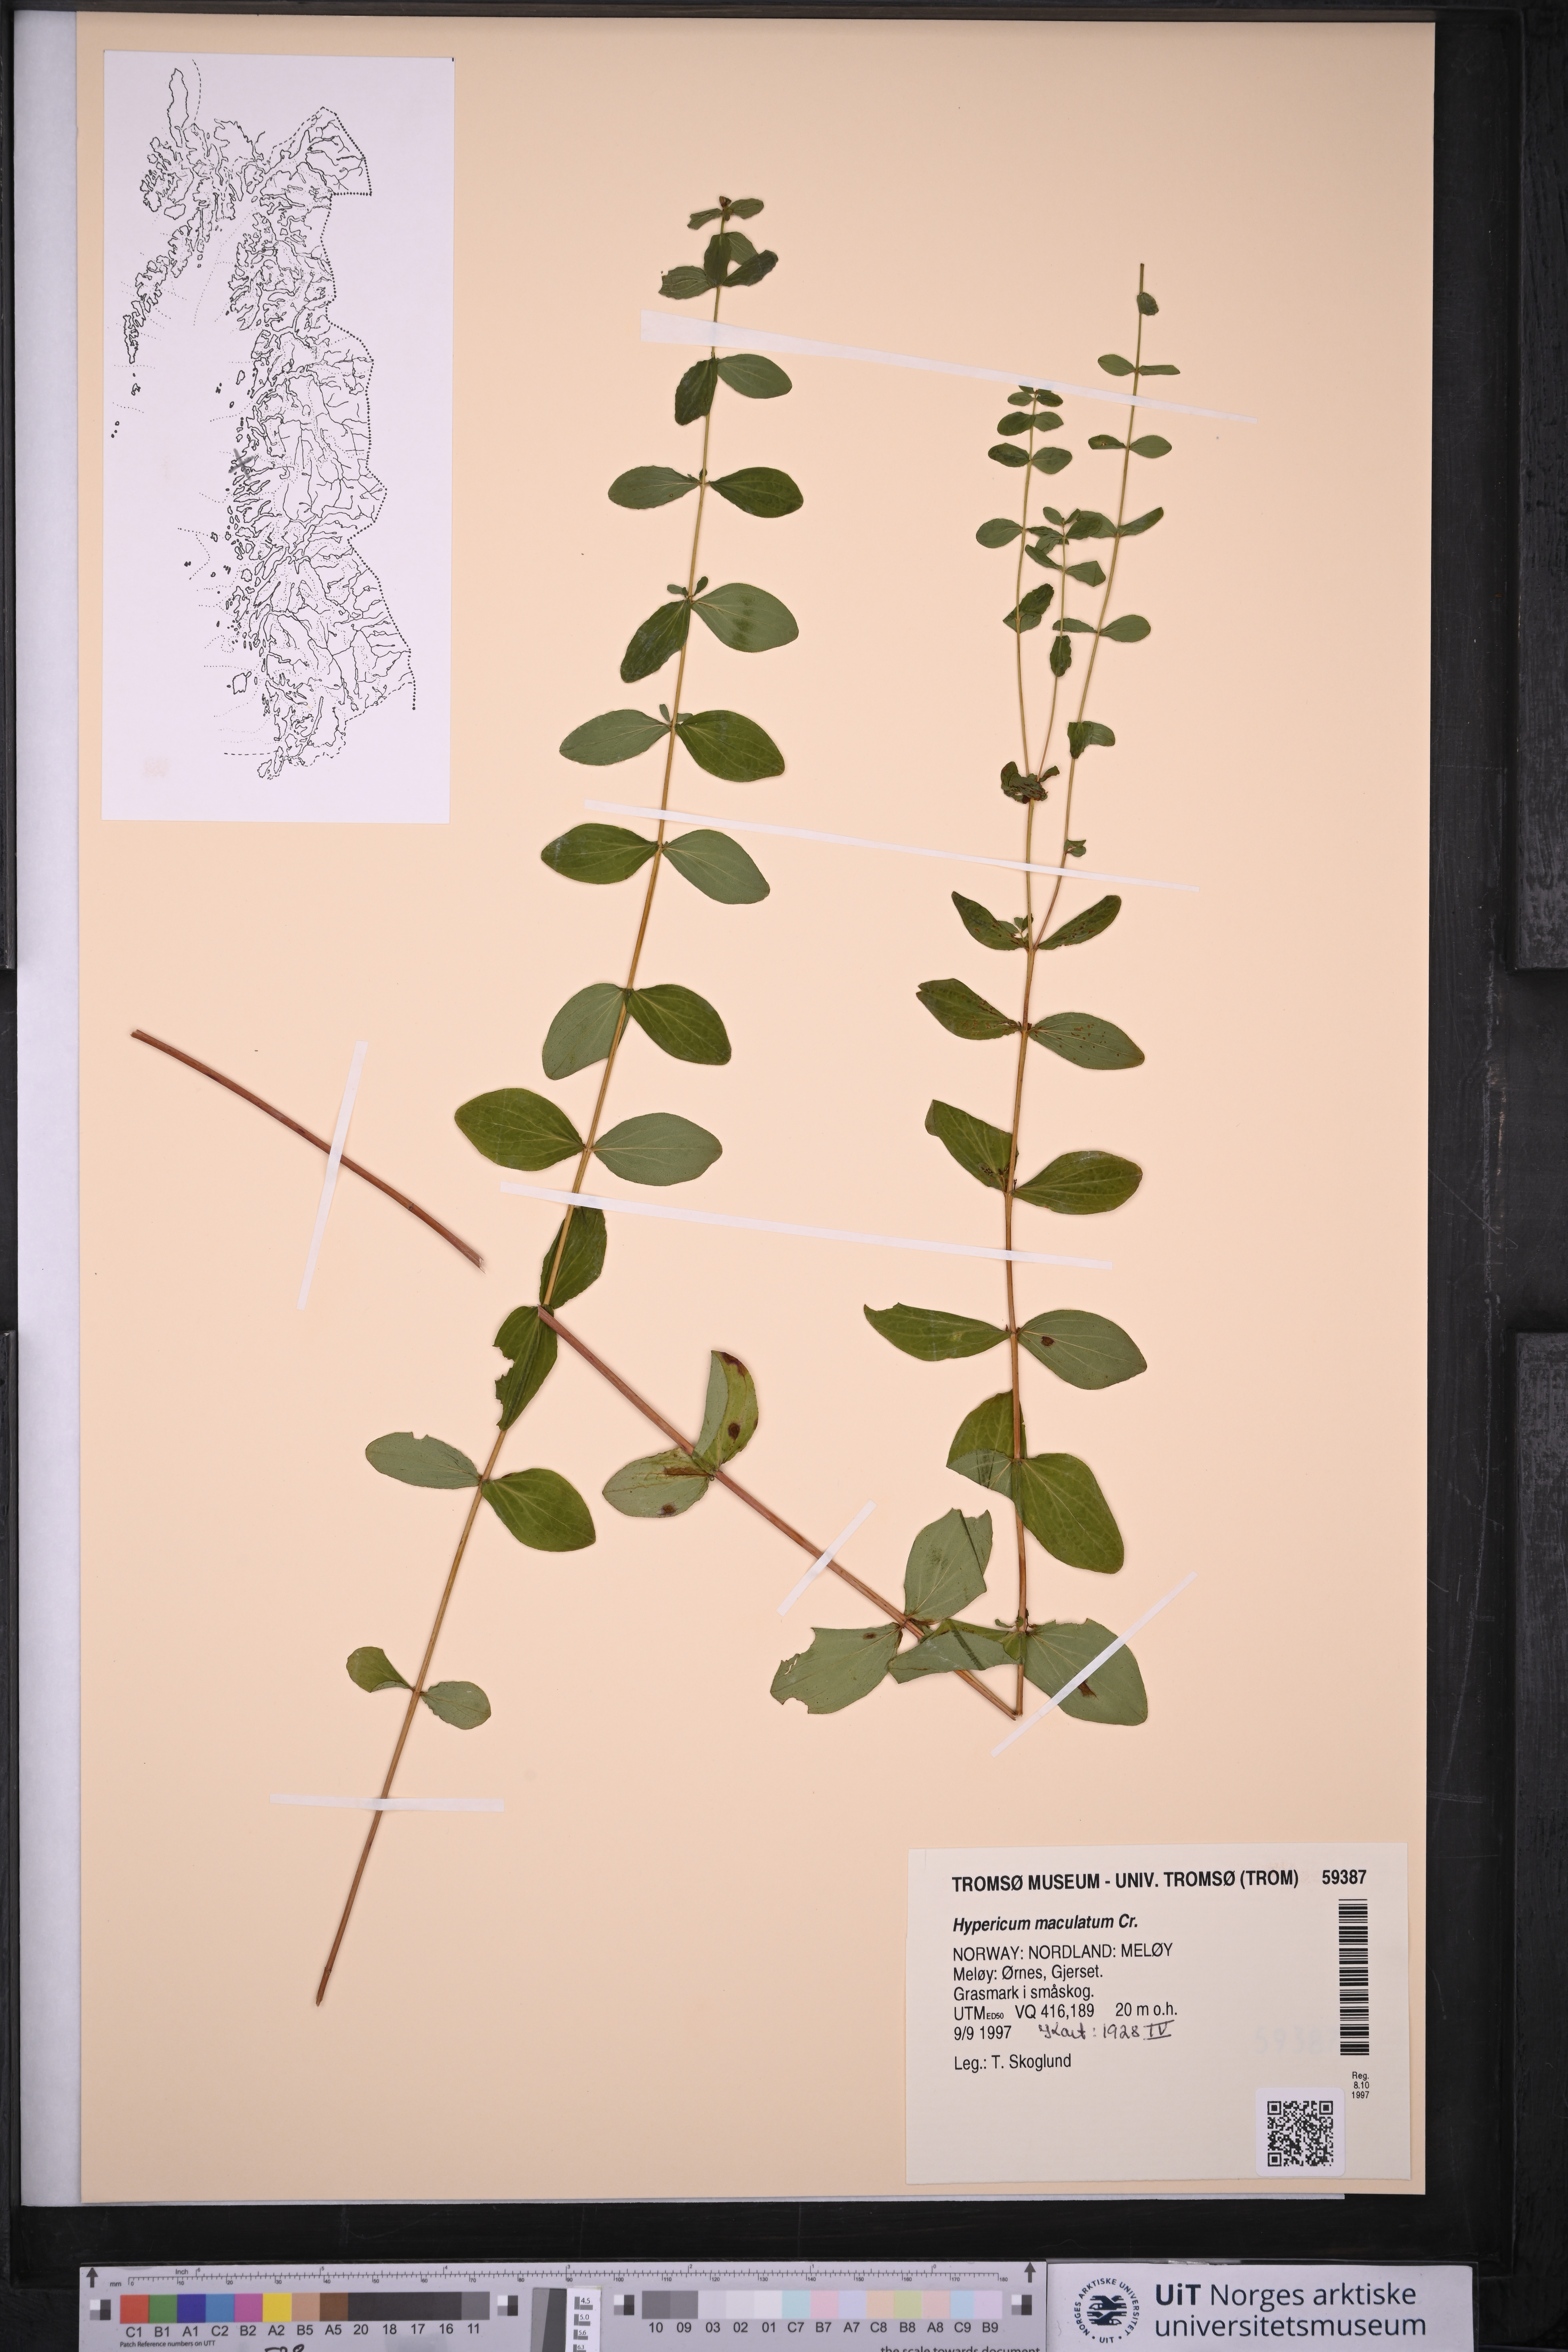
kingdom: Plantae
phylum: Tracheophyta
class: Magnoliopsida
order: Malpighiales
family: Hypericaceae
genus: Hypericum
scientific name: Hypericum maculatum
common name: Imperforate st. john's-wort
